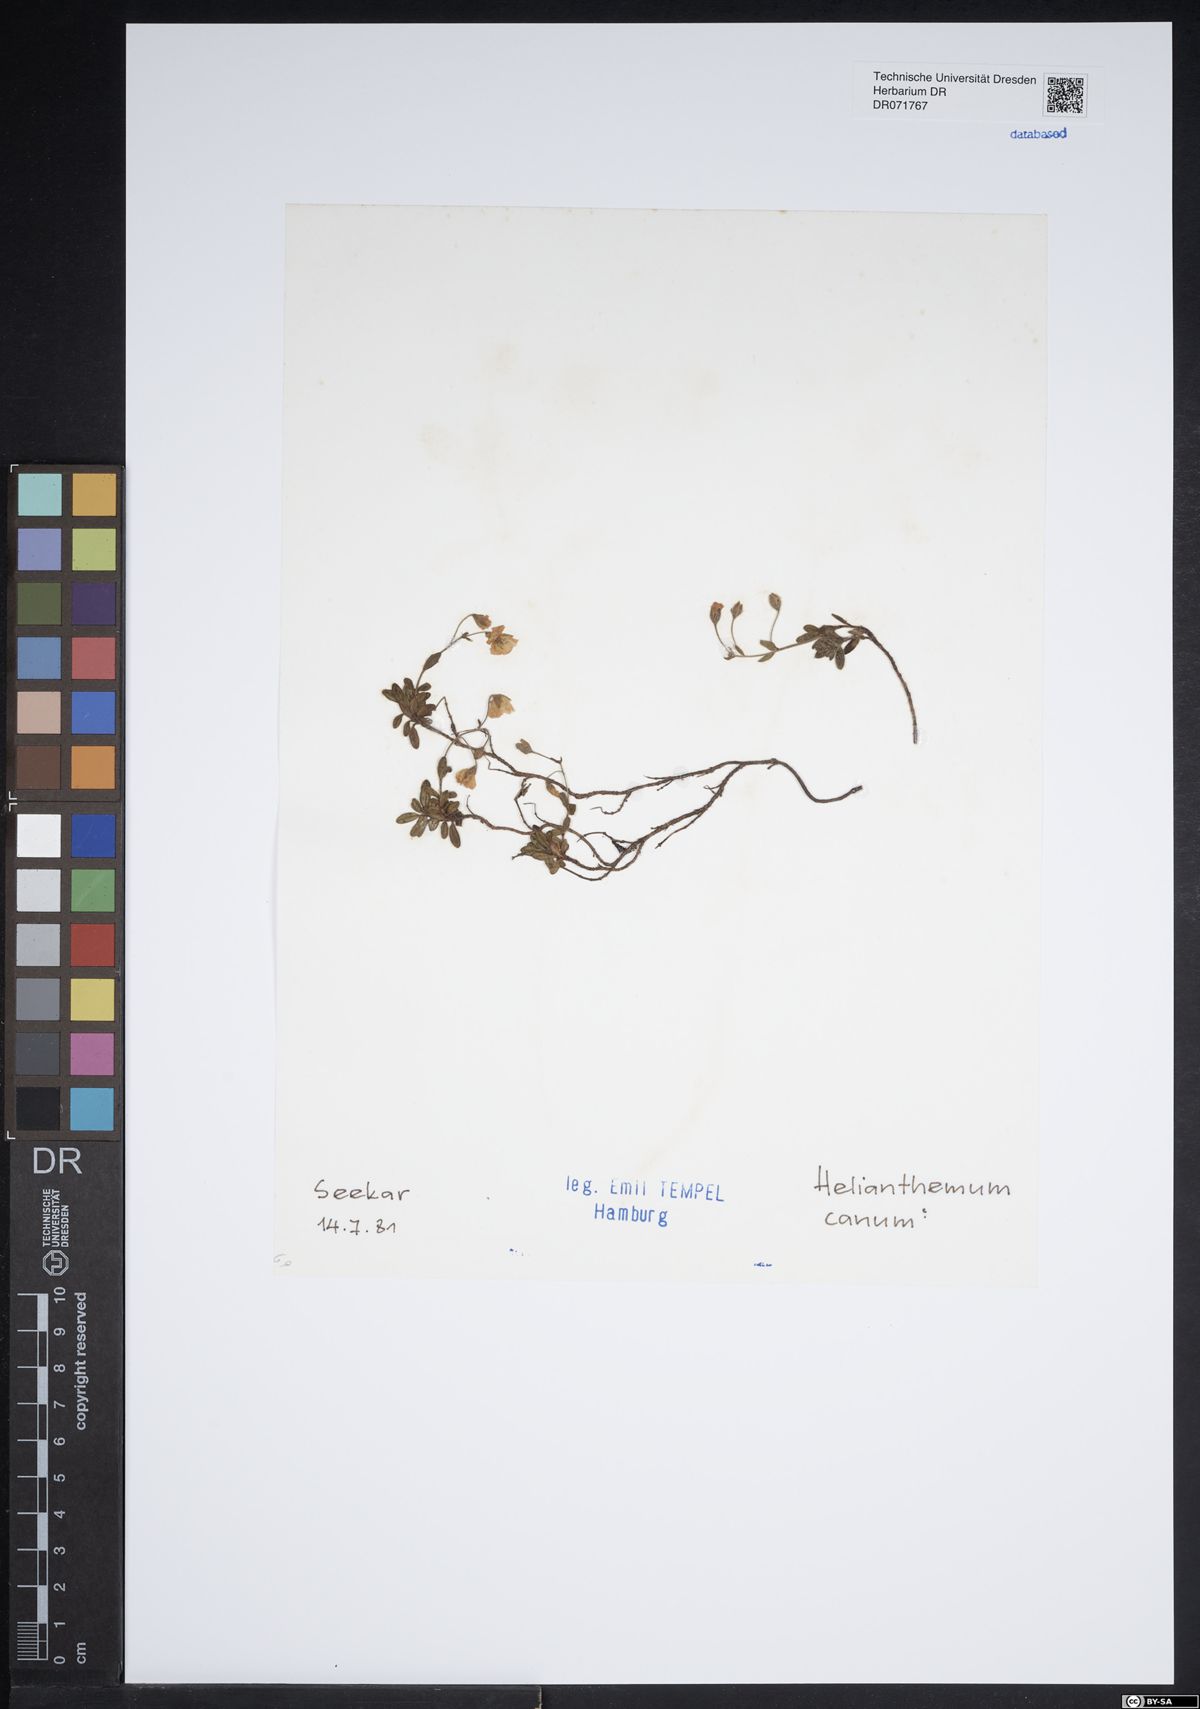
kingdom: Plantae
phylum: Tracheophyta
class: Magnoliopsida
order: Malvales
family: Cistaceae
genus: Helianthemum
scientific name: Helianthemum canum
